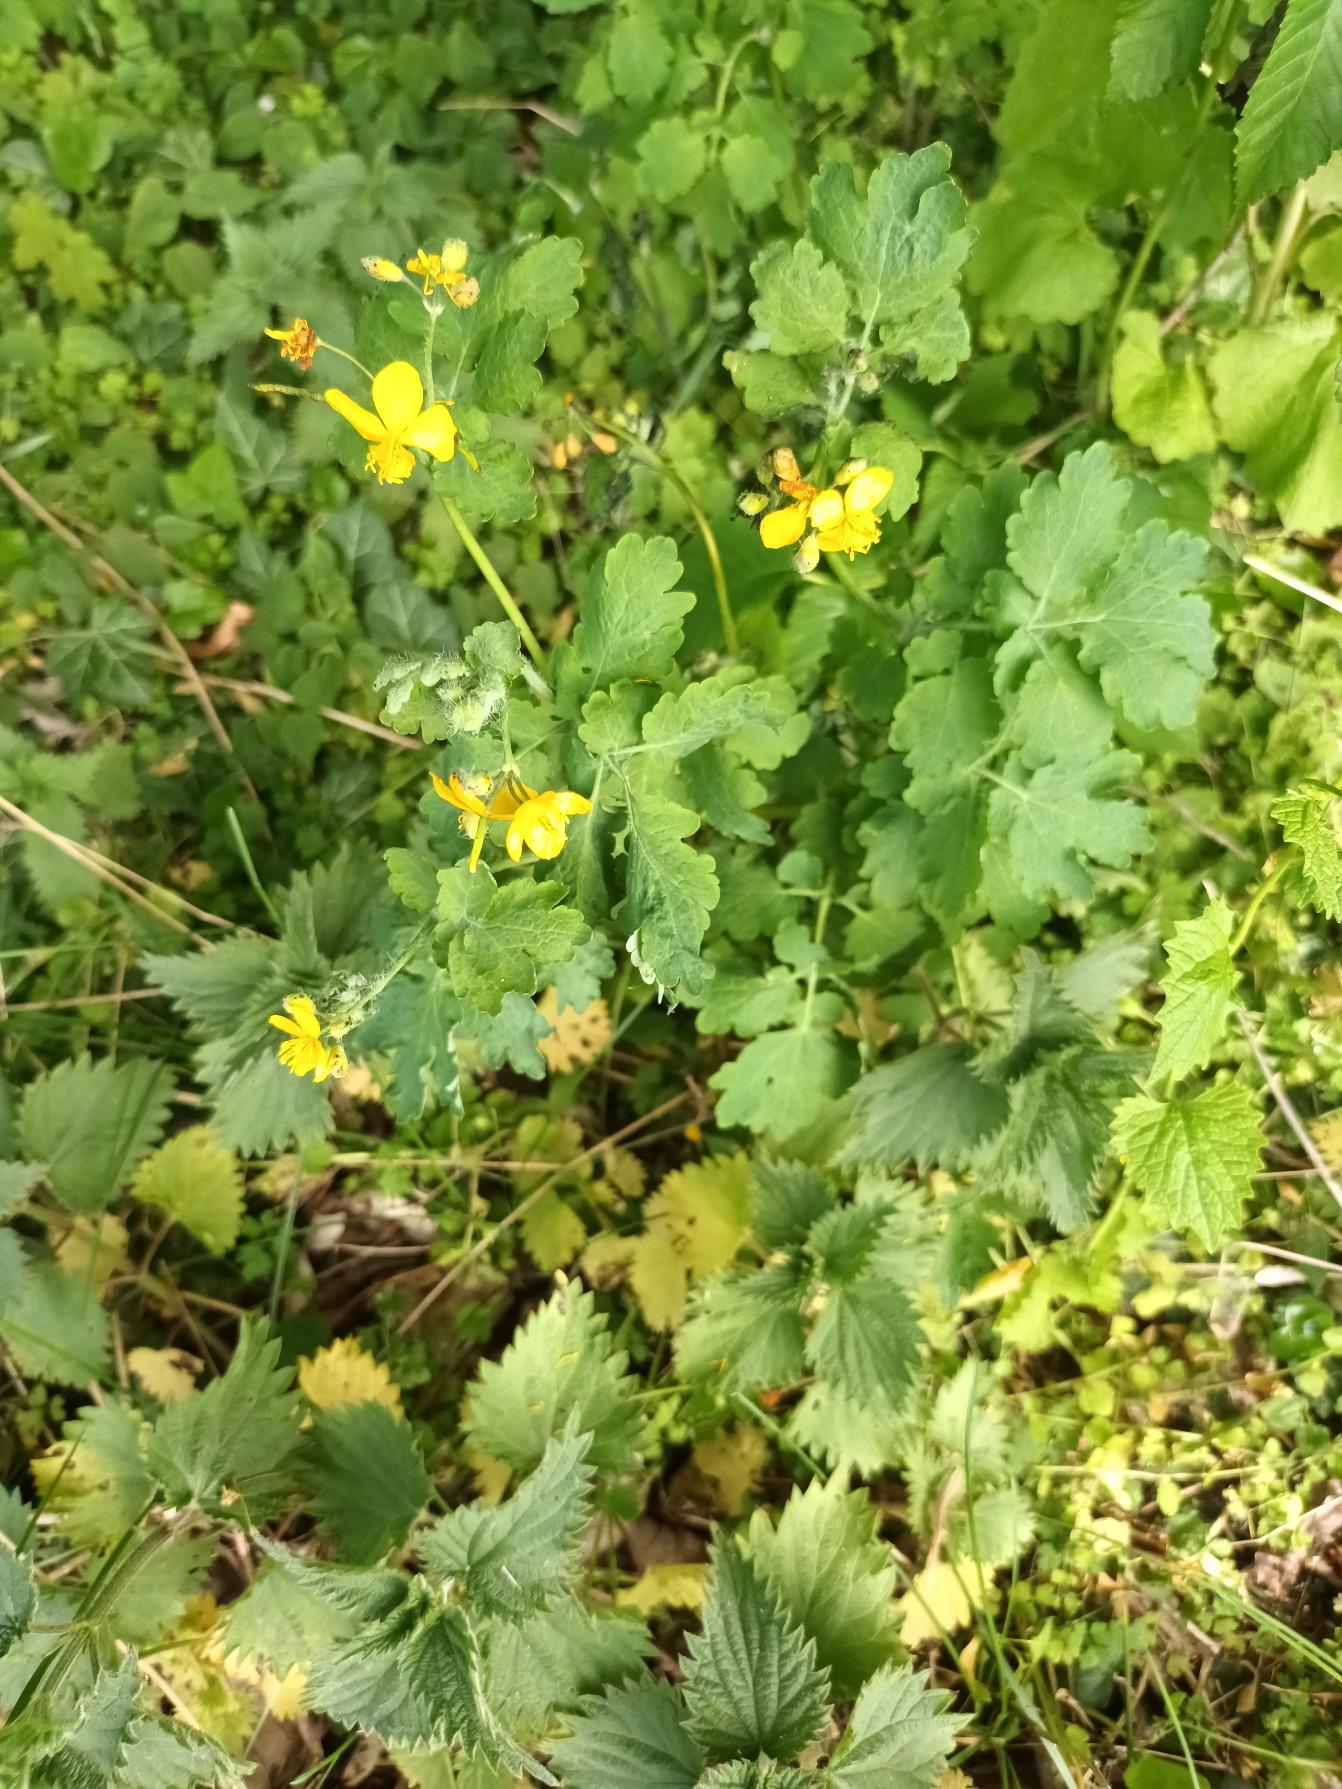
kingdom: Plantae
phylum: Tracheophyta
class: Magnoliopsida
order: Ranunculales
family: Papaveraceae
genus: Chelidonium
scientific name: Chelidonium majus
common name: Svaleurt
